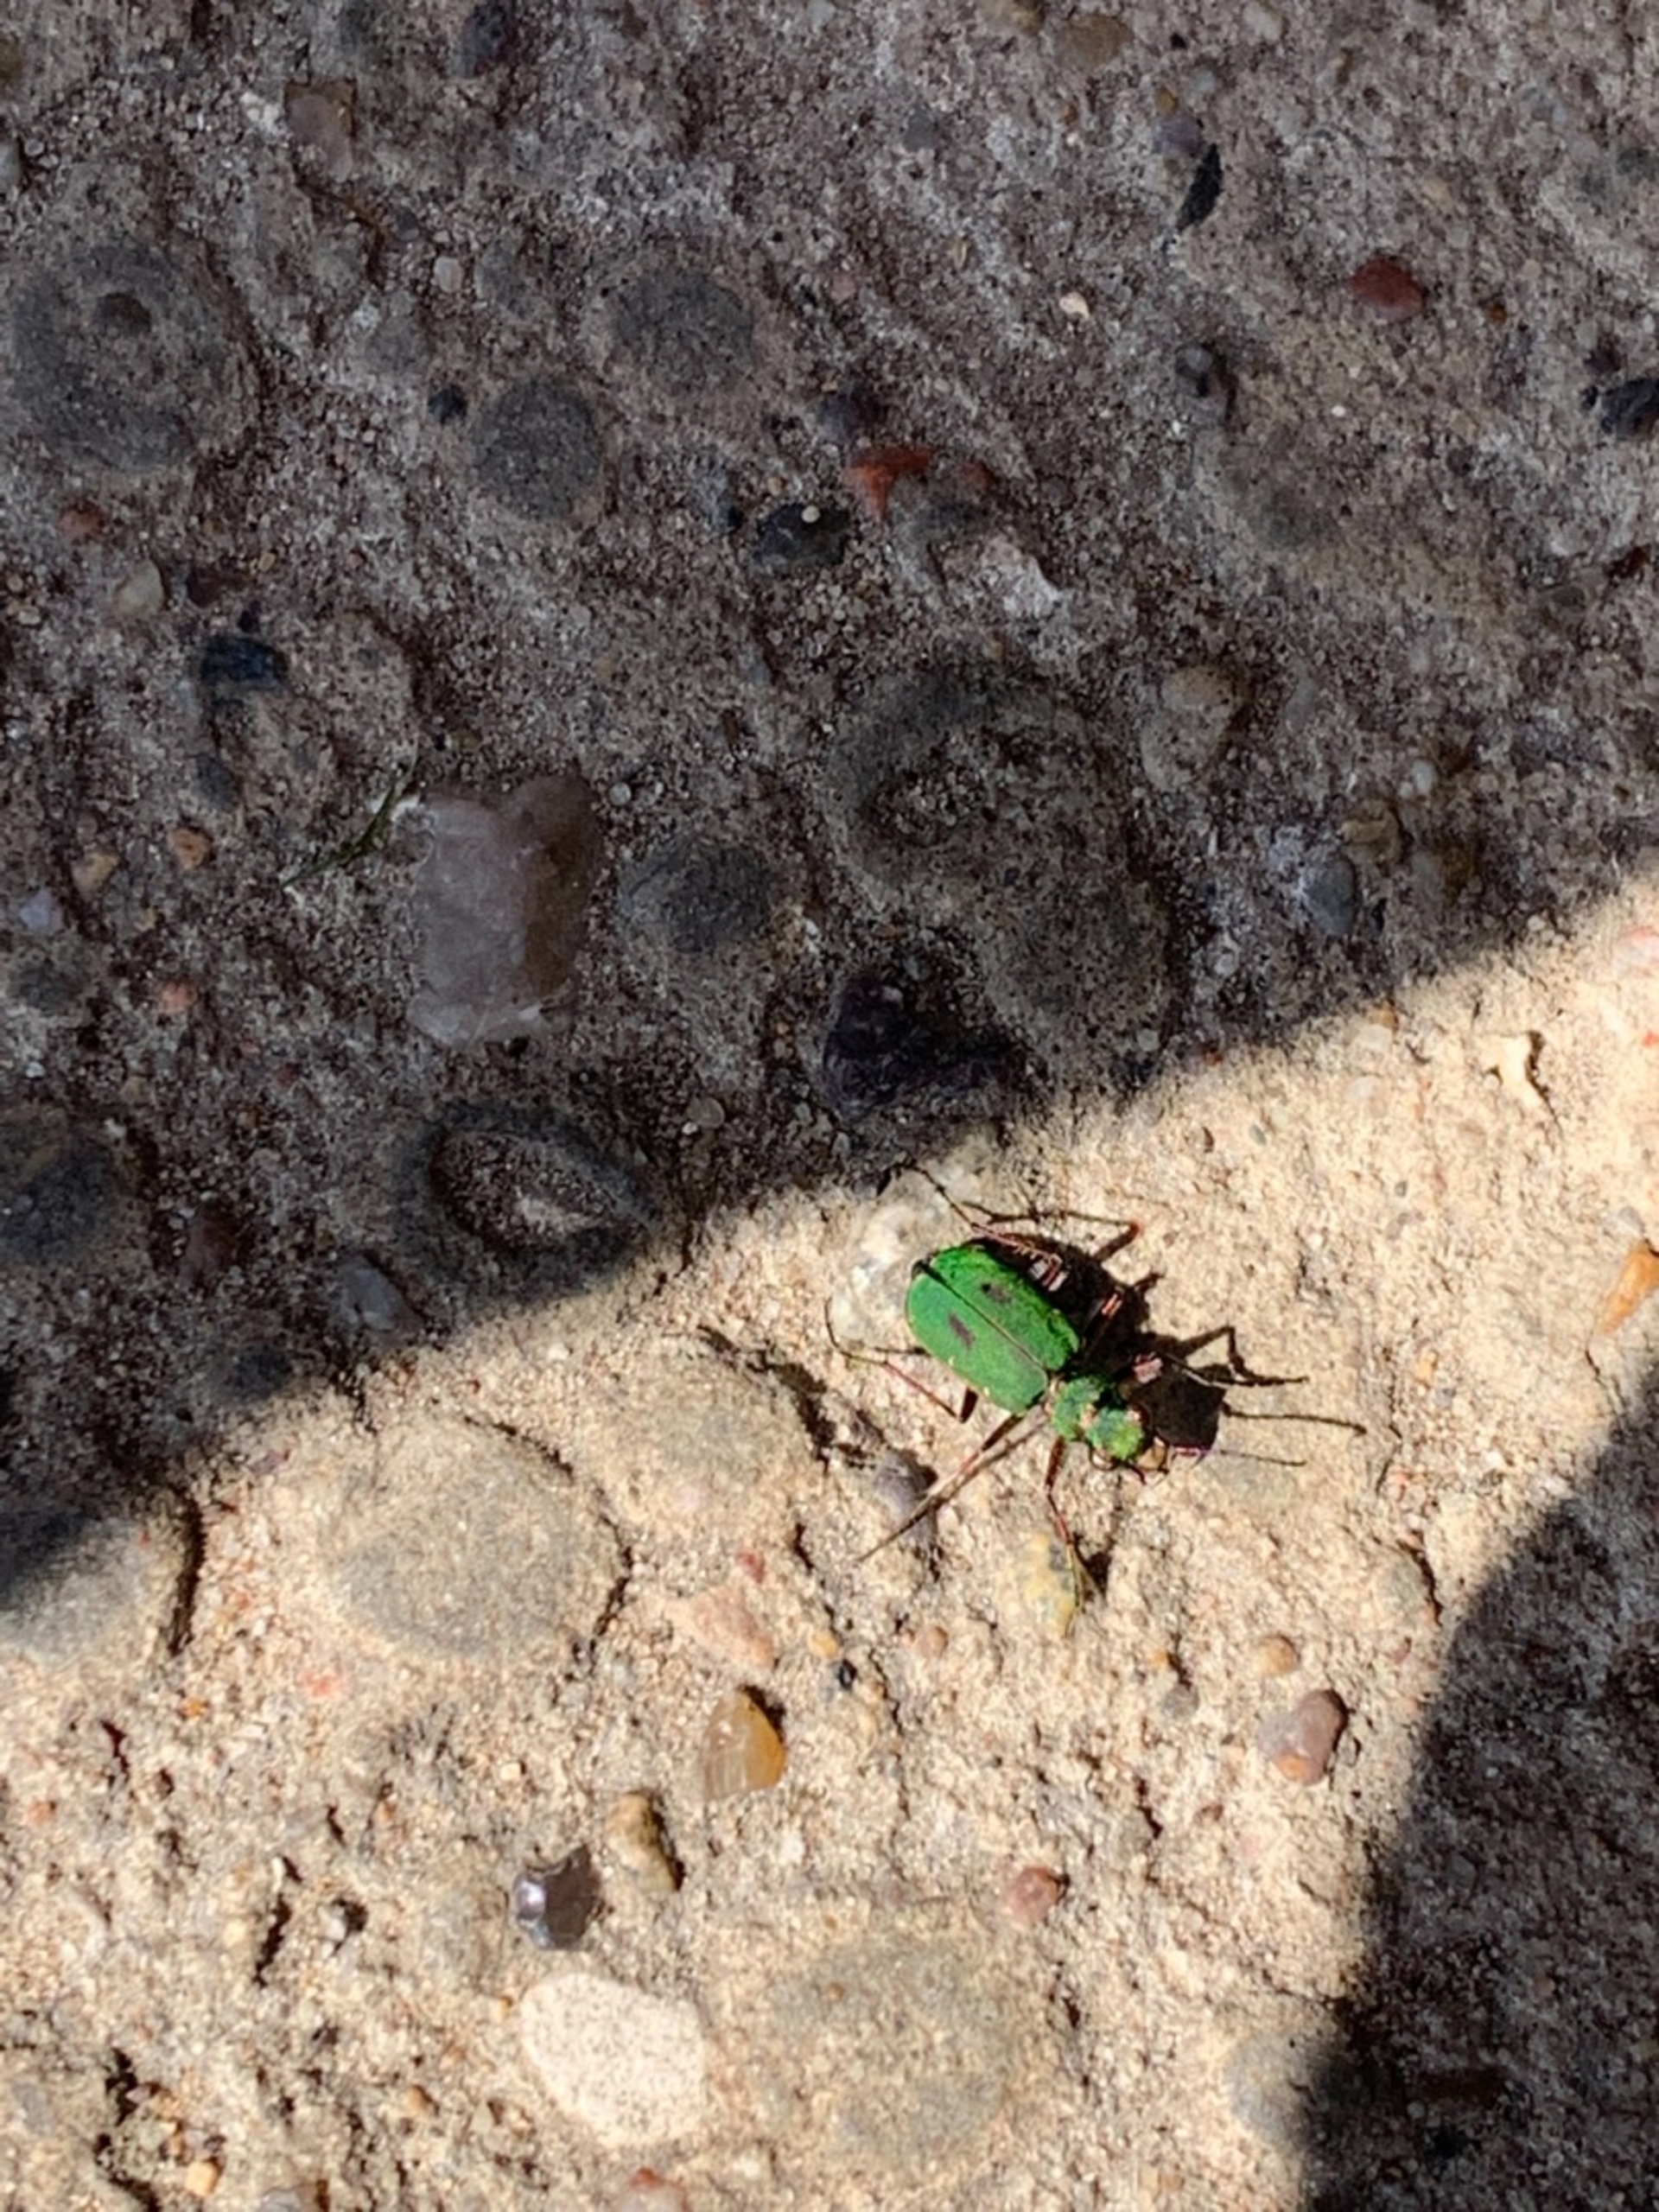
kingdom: Animalia
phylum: Arthropoda
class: Insecta
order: Coleoptera
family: Carabidae
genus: Cicindela
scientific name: Cicindela campestris
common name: Grøn sandspringer
